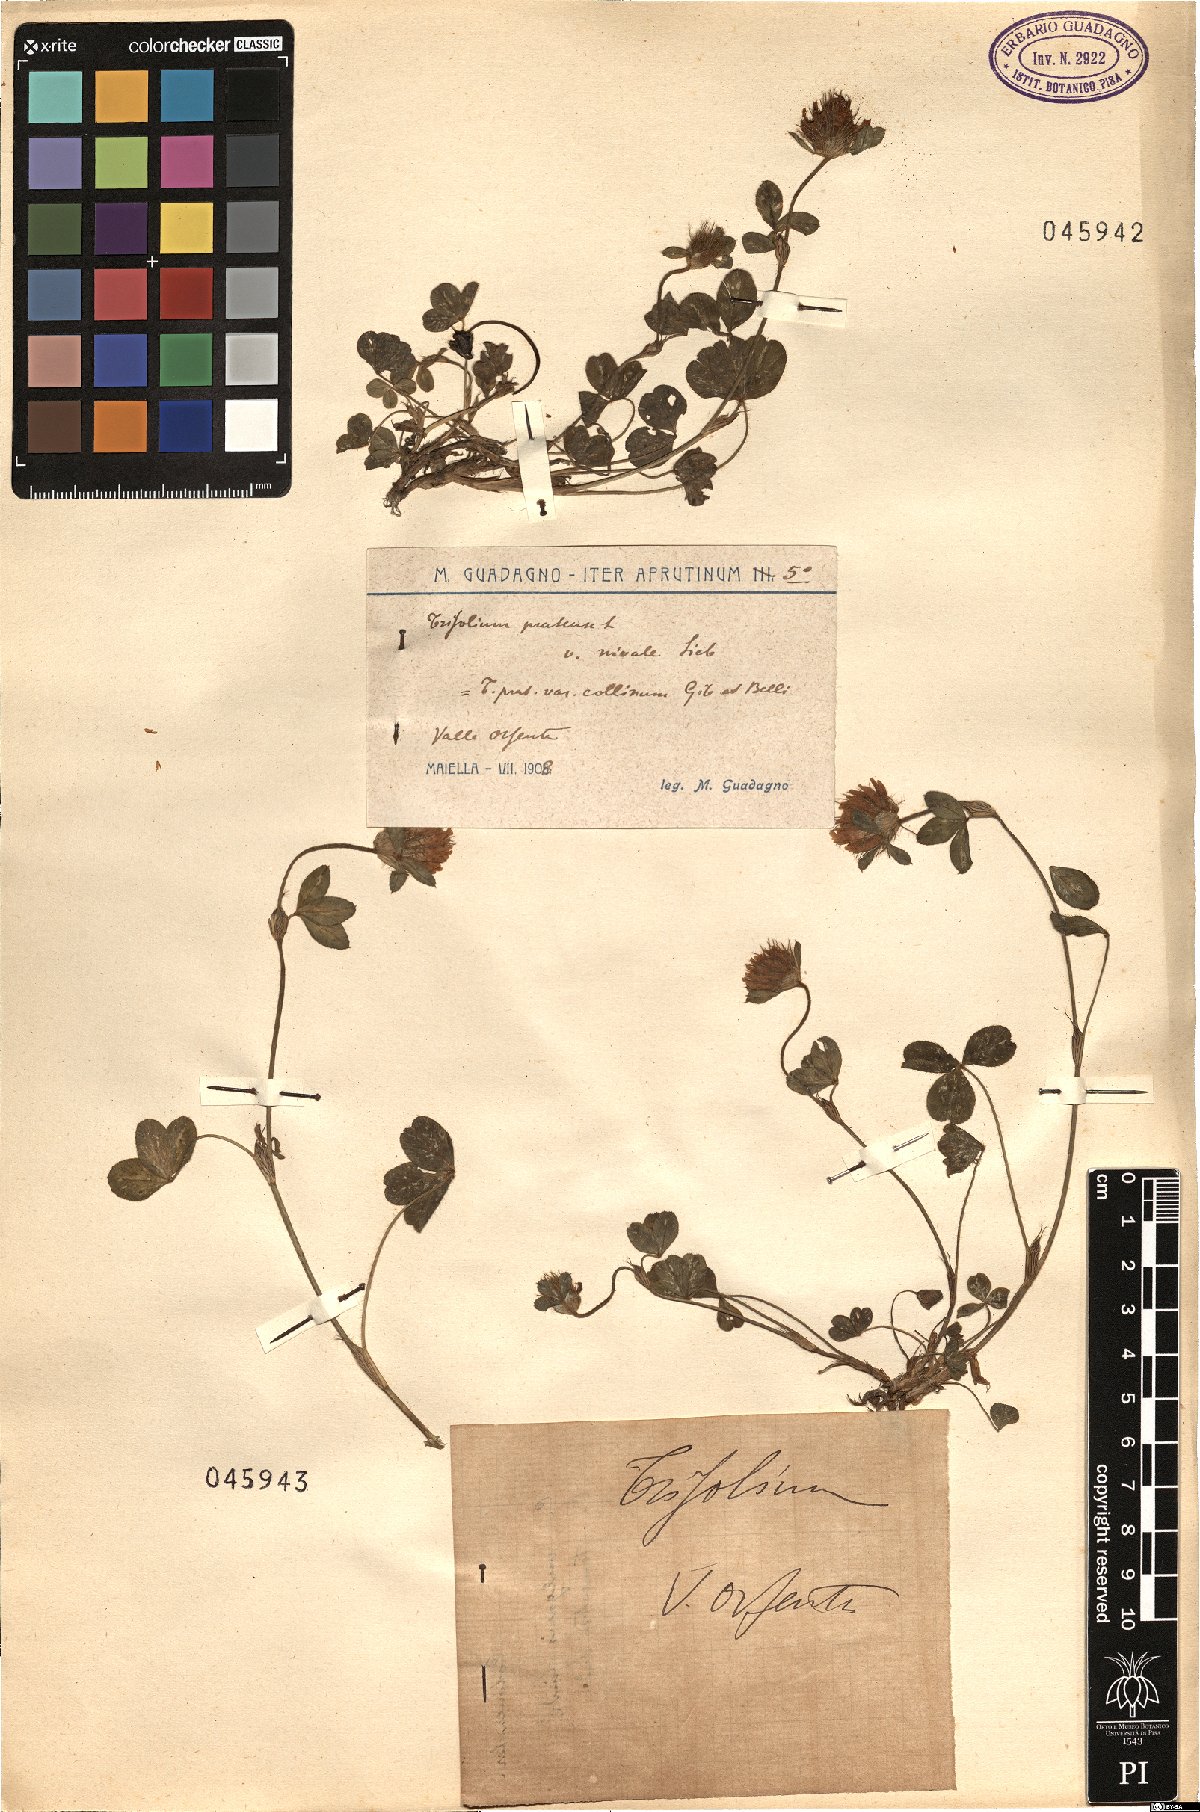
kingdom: Plantae
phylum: Tracheophyta
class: Magnoliopsida
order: Fabales
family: Fabaceae
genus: Trifolium
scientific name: Trifolium
